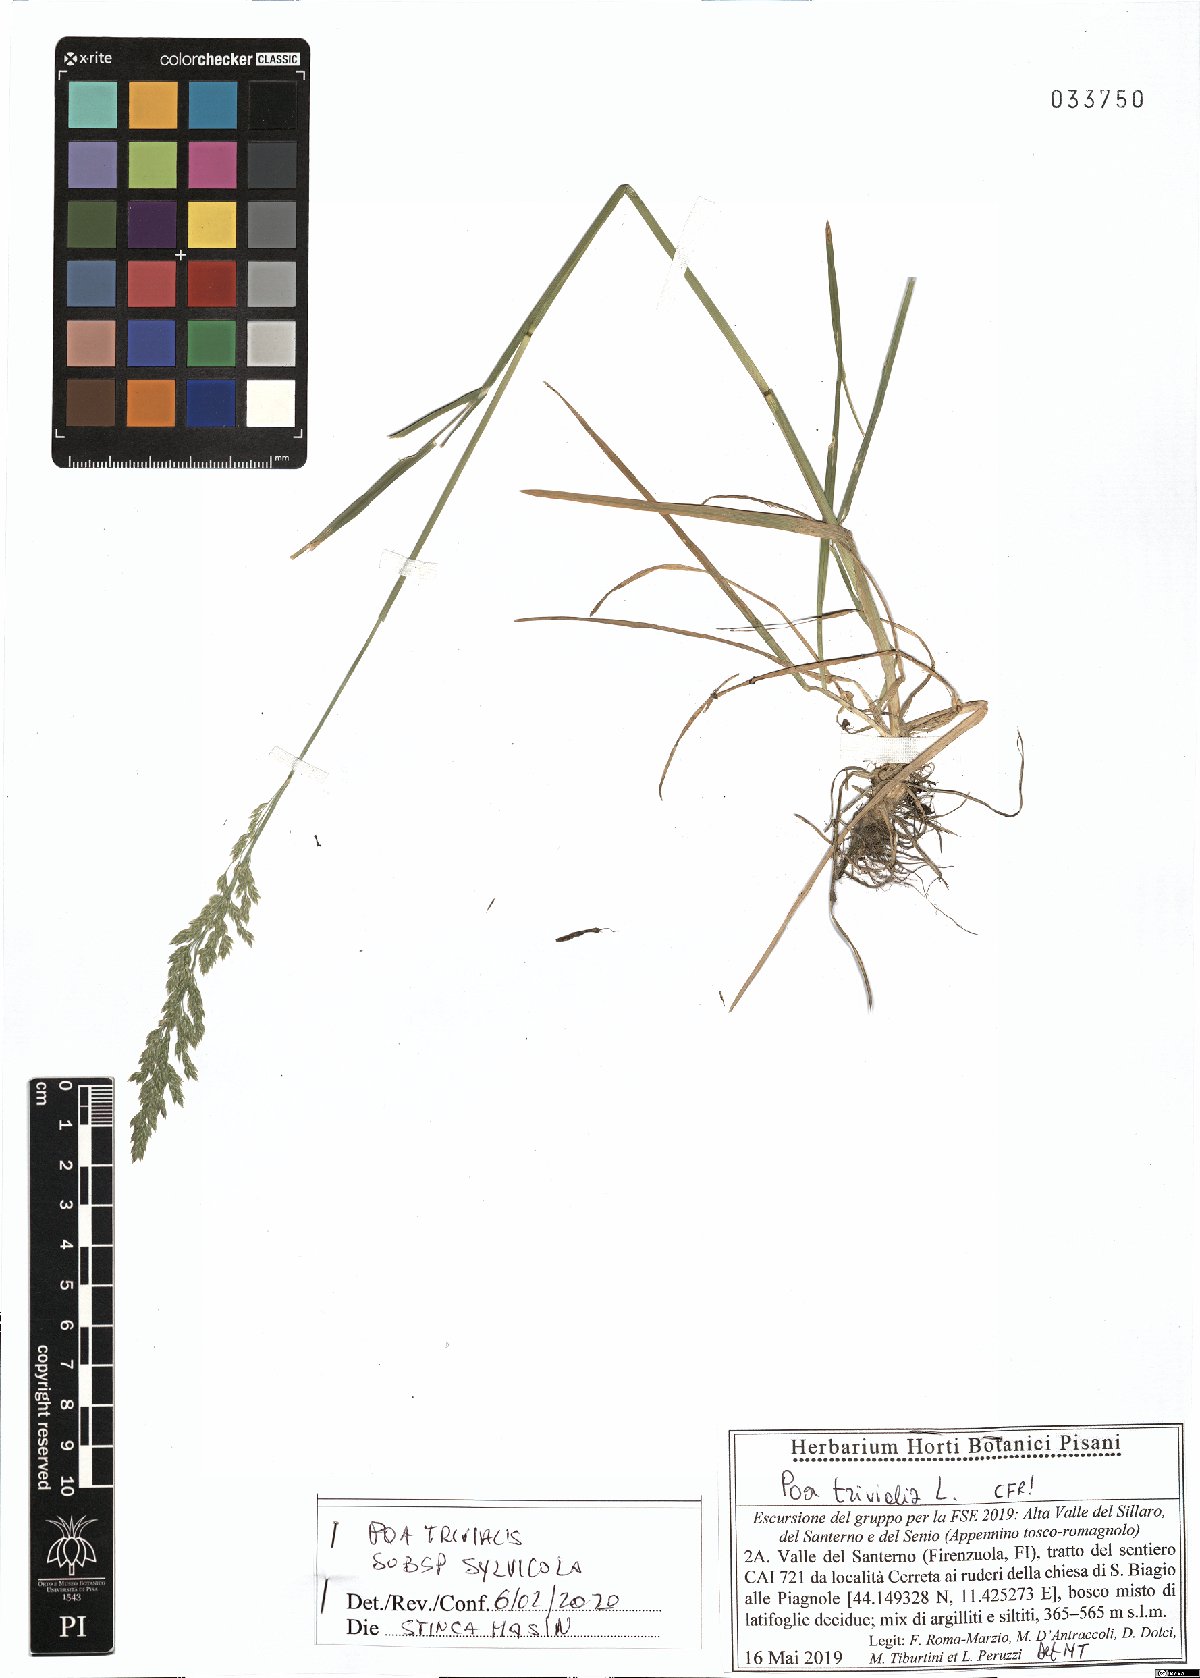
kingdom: Plantae
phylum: Tracheophyta
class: Liliopsida
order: Poales
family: Poaceae
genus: Poa
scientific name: Poa trivialis
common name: Rough bluegrass
